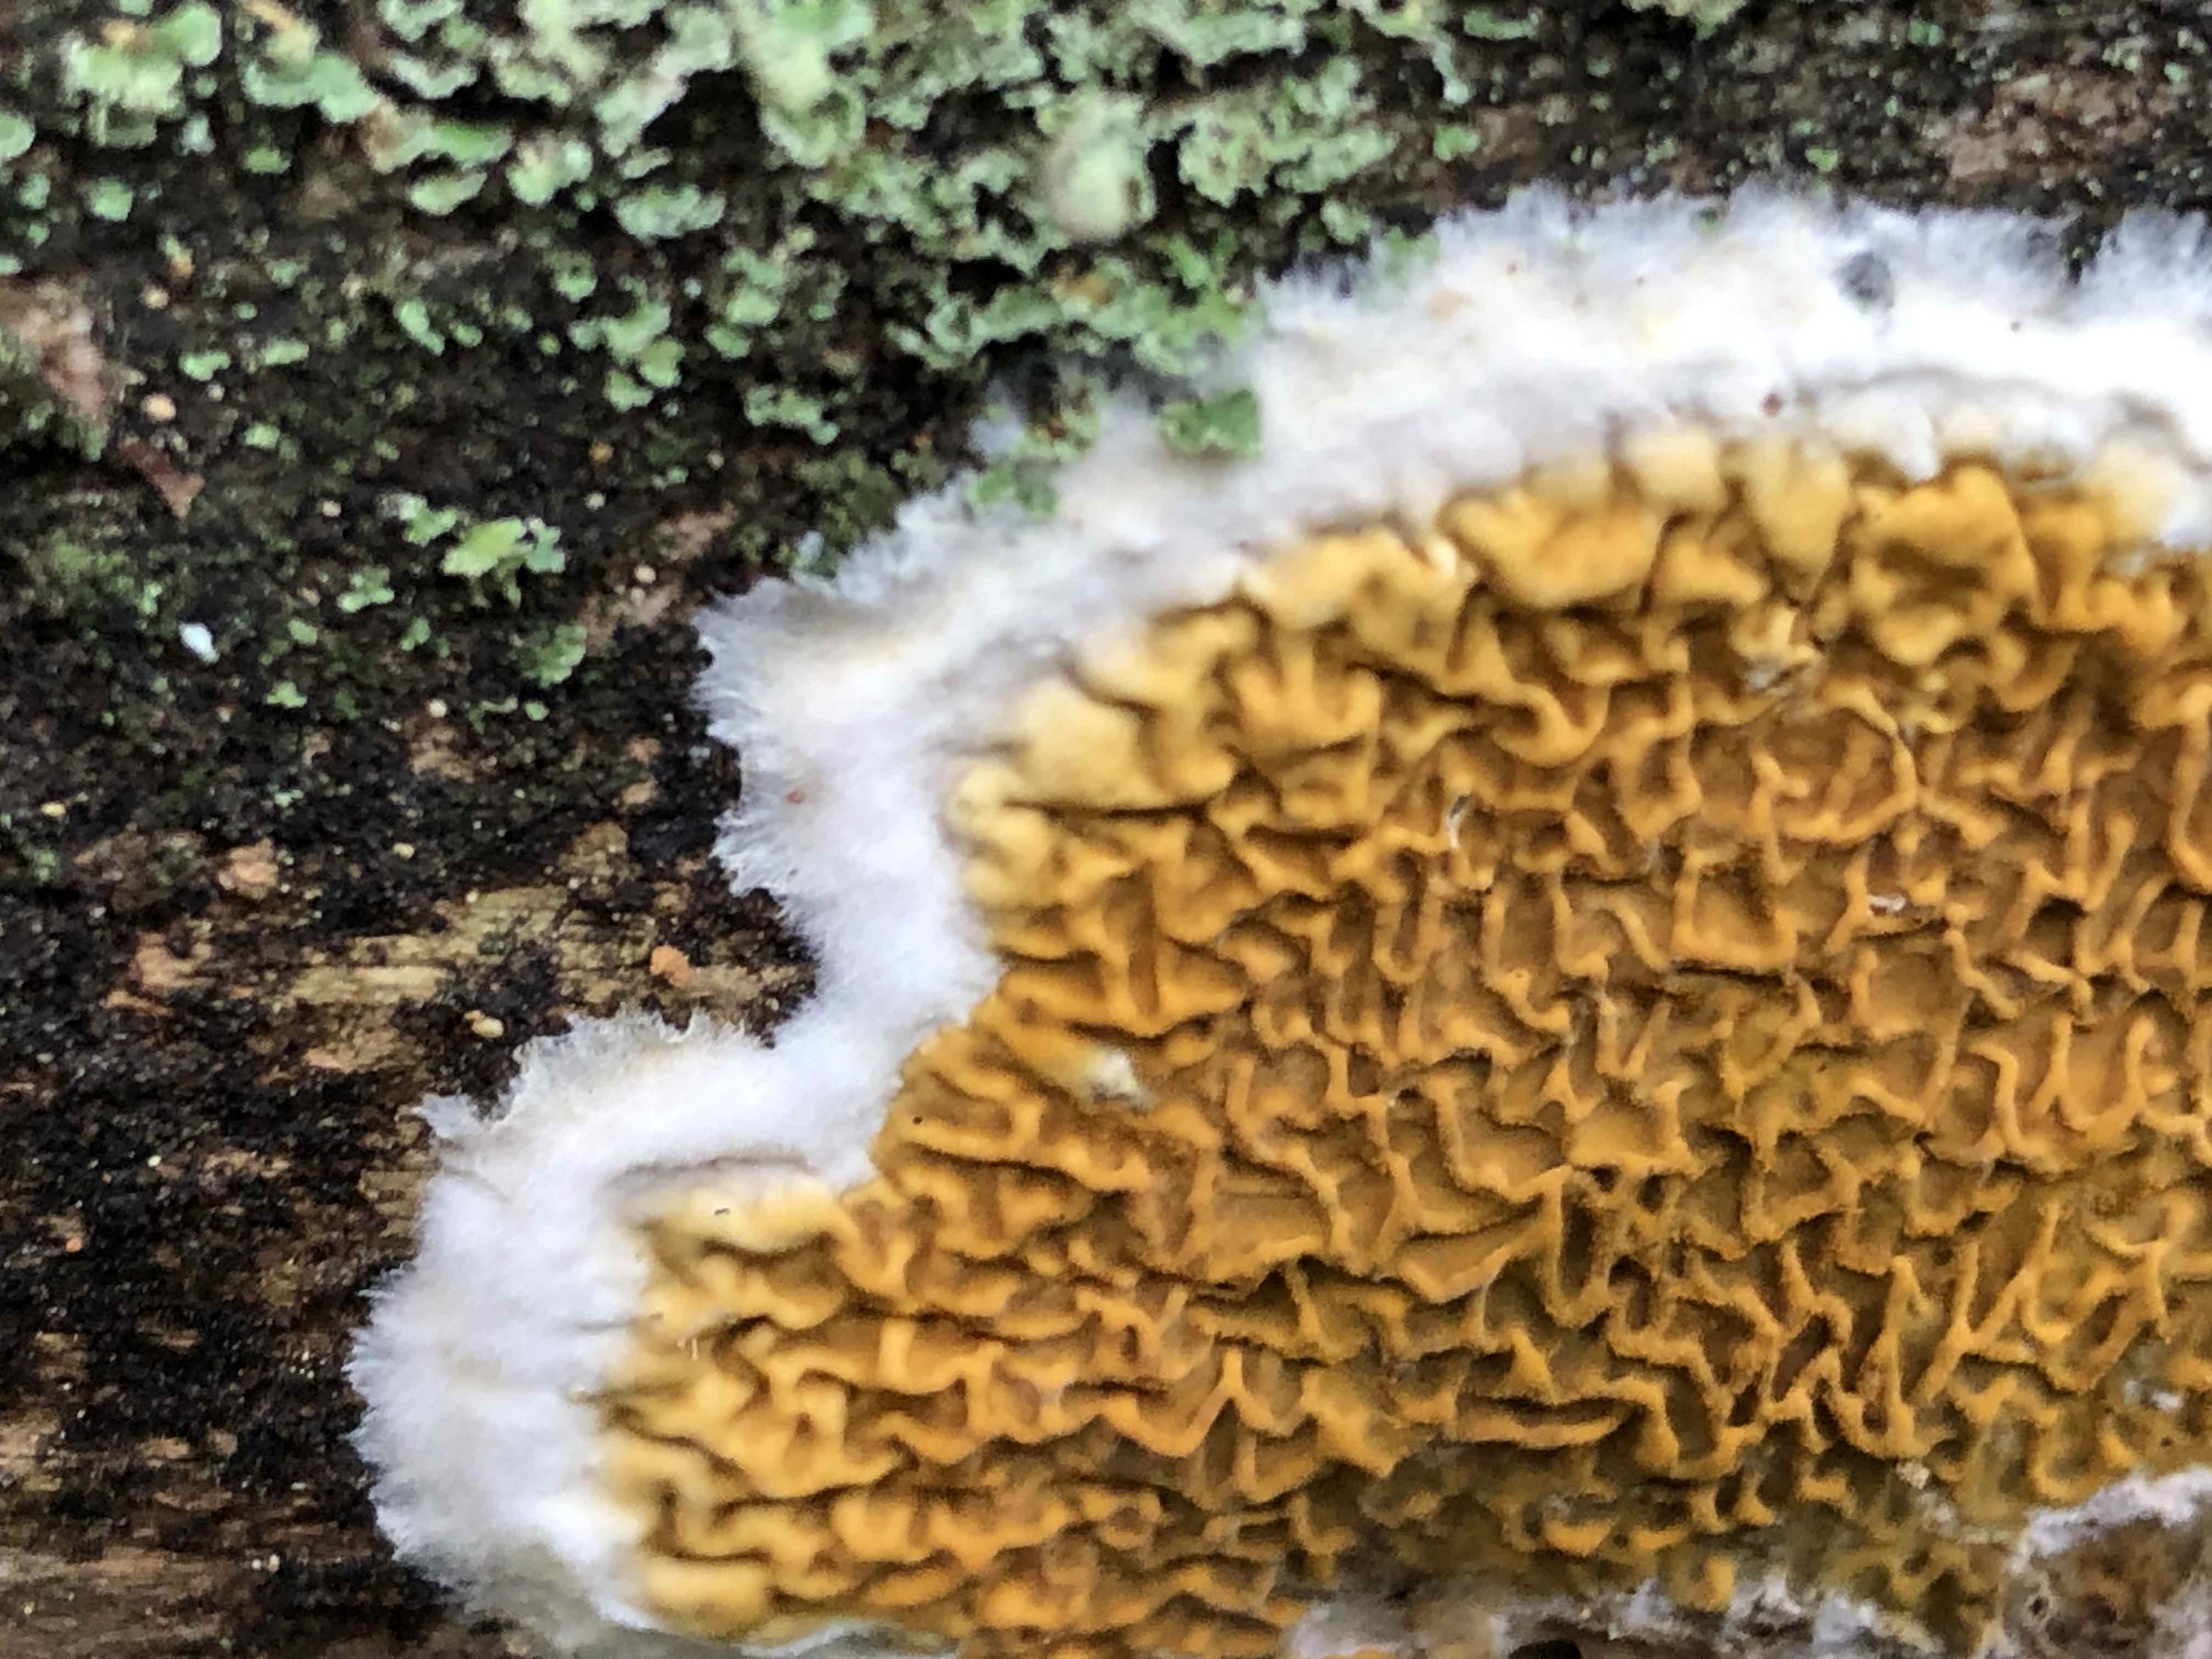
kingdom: Fungi
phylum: Basidiomycota
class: Agaricomycetes
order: Boletales
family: Serpulaceae
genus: Serpula
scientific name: Serpula himantioides
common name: tyndkødet hussvamp
